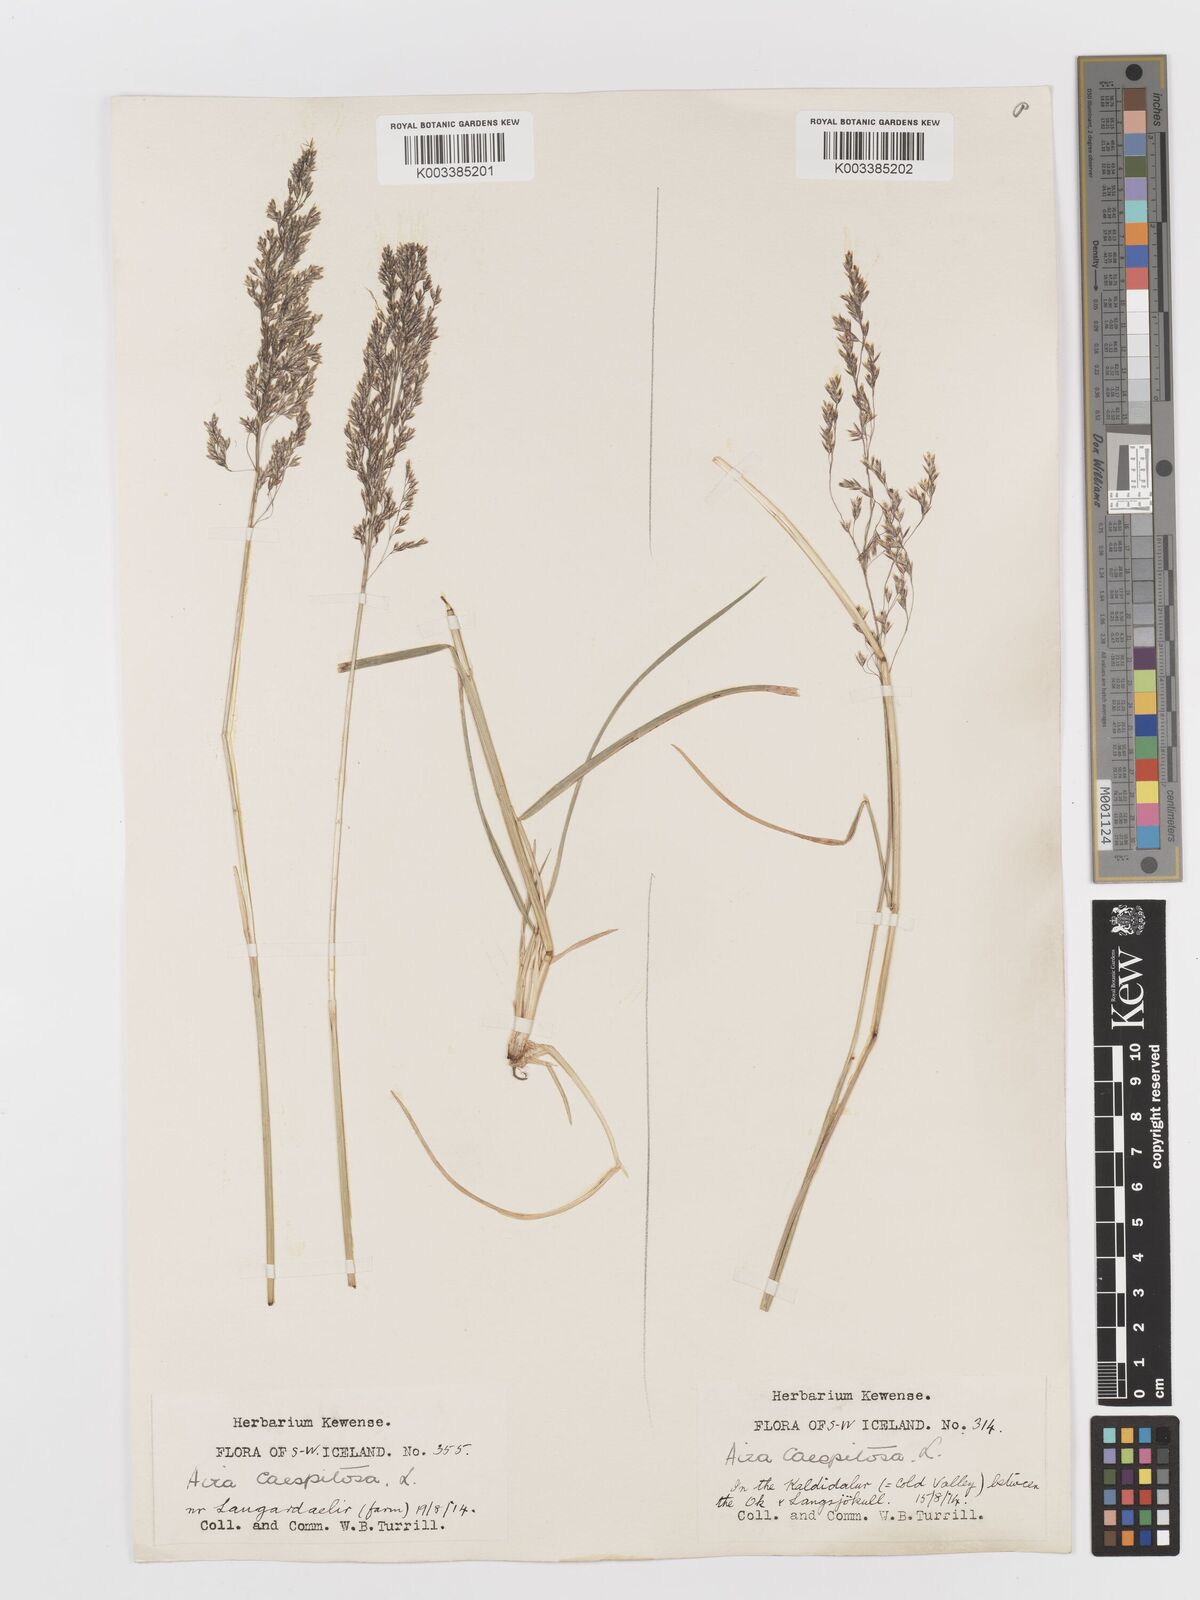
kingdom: Plantae
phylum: Tracheophyta
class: Liliopsida
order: Poales
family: Poaceae
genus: Deschampsia
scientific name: Deschampsia cespitosa
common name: Tufted hair-grass
